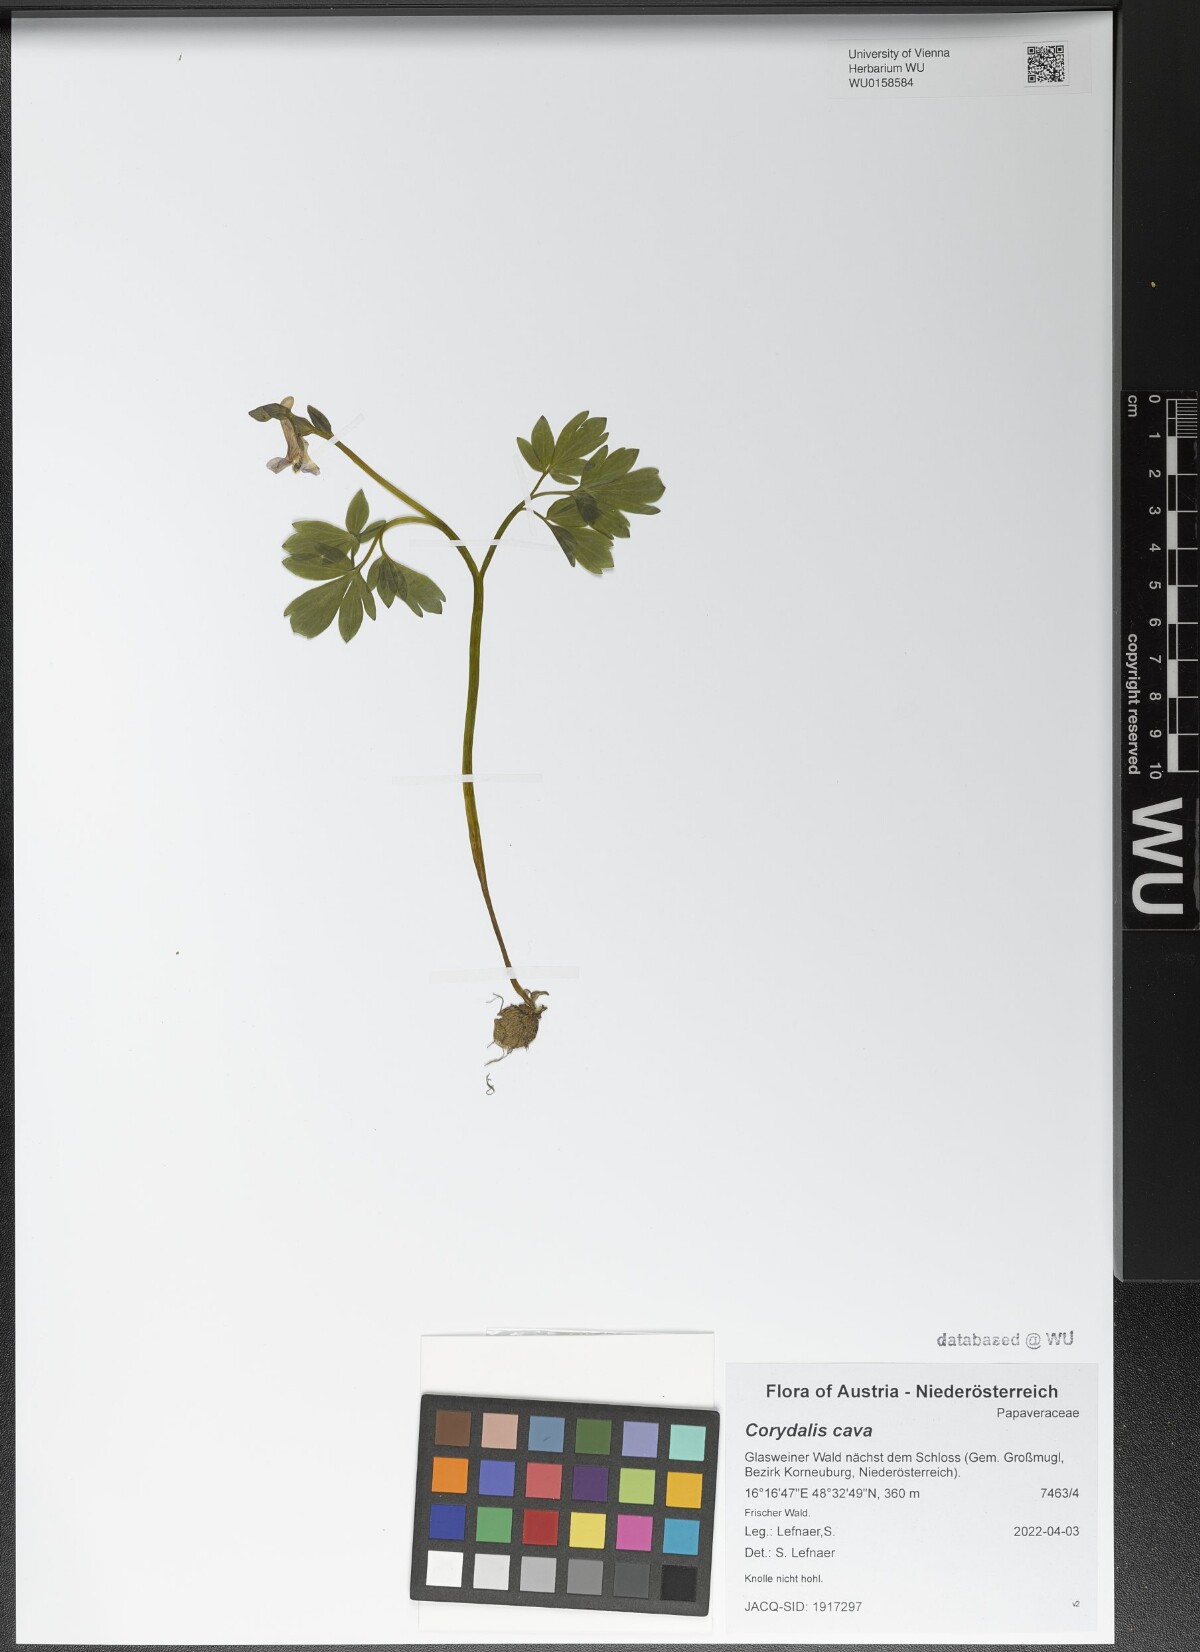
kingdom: Plantae
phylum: Tracheophyta
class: Magnoliopsida
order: Ranunculales
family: Papaveraceae
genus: Corydalis
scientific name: Corydalis cava
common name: Hollowroot
